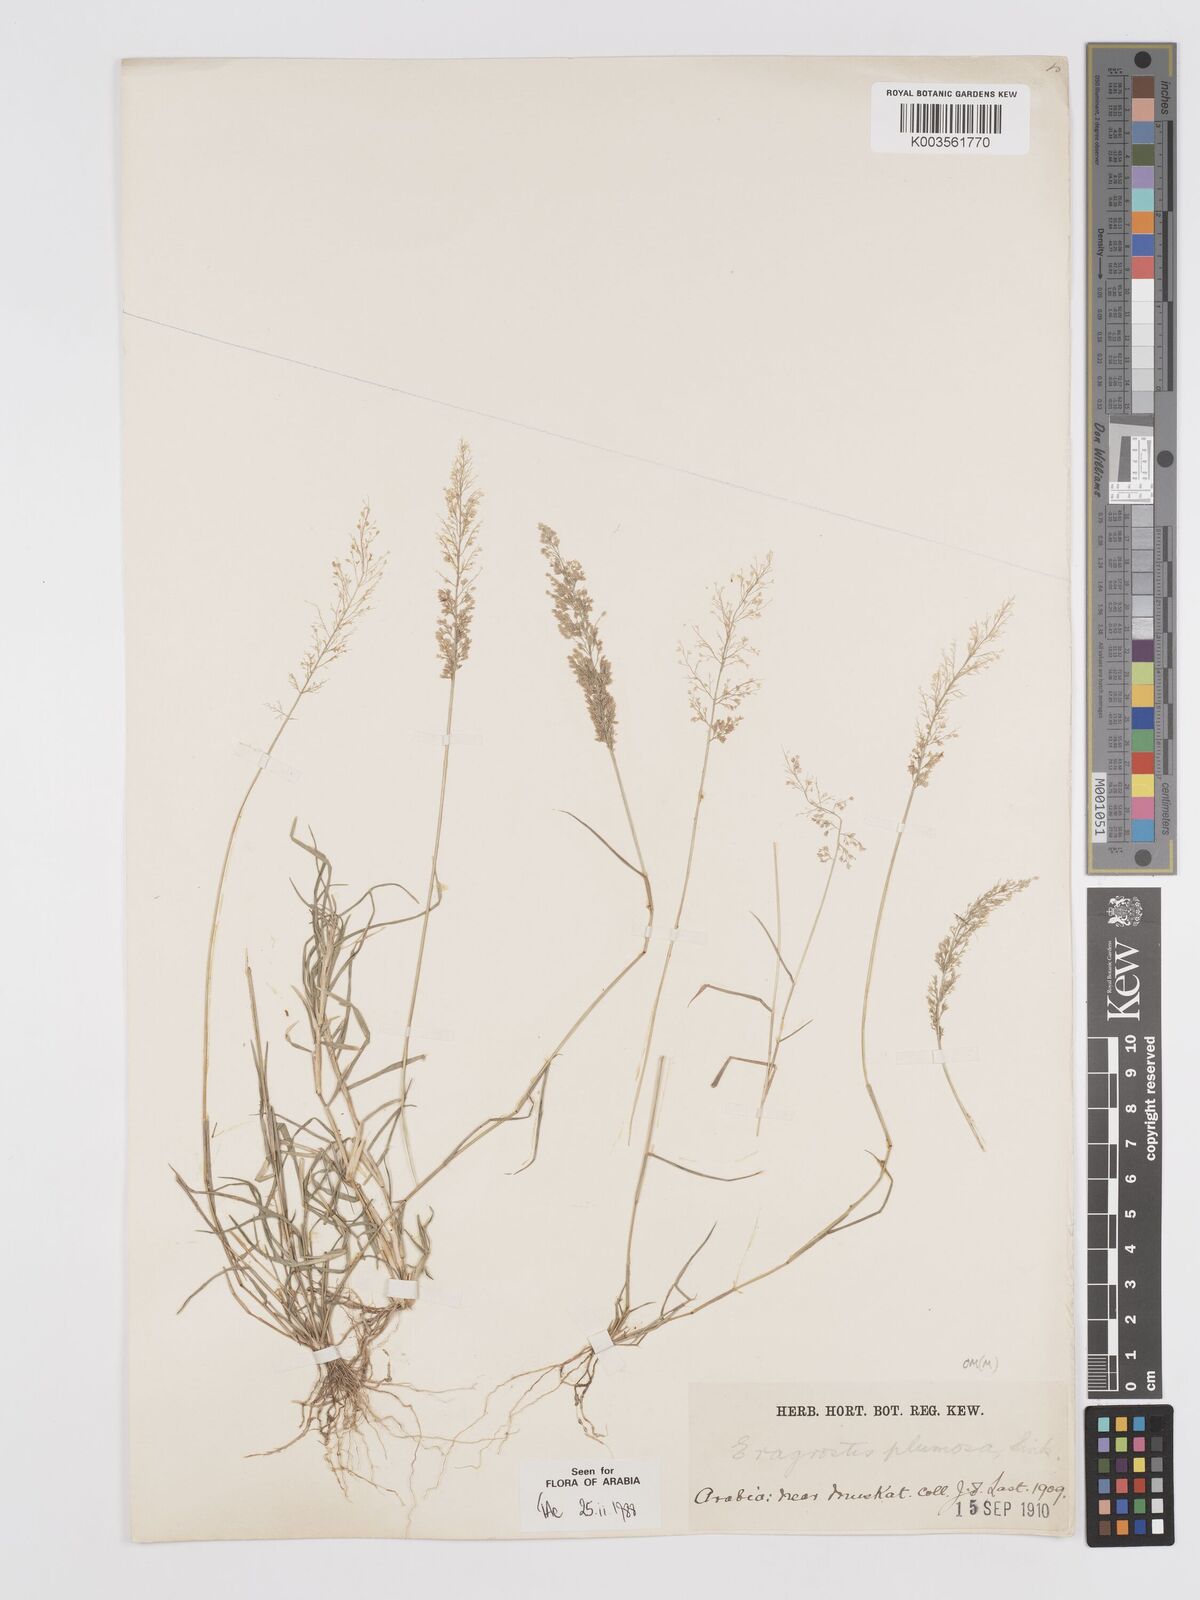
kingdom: Plantae
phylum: Tracheophyta
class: Liliopsida
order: Poales
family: Poaceae
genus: Eragrostis
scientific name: Eragrostis tenella
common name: Japanese lovegrass
